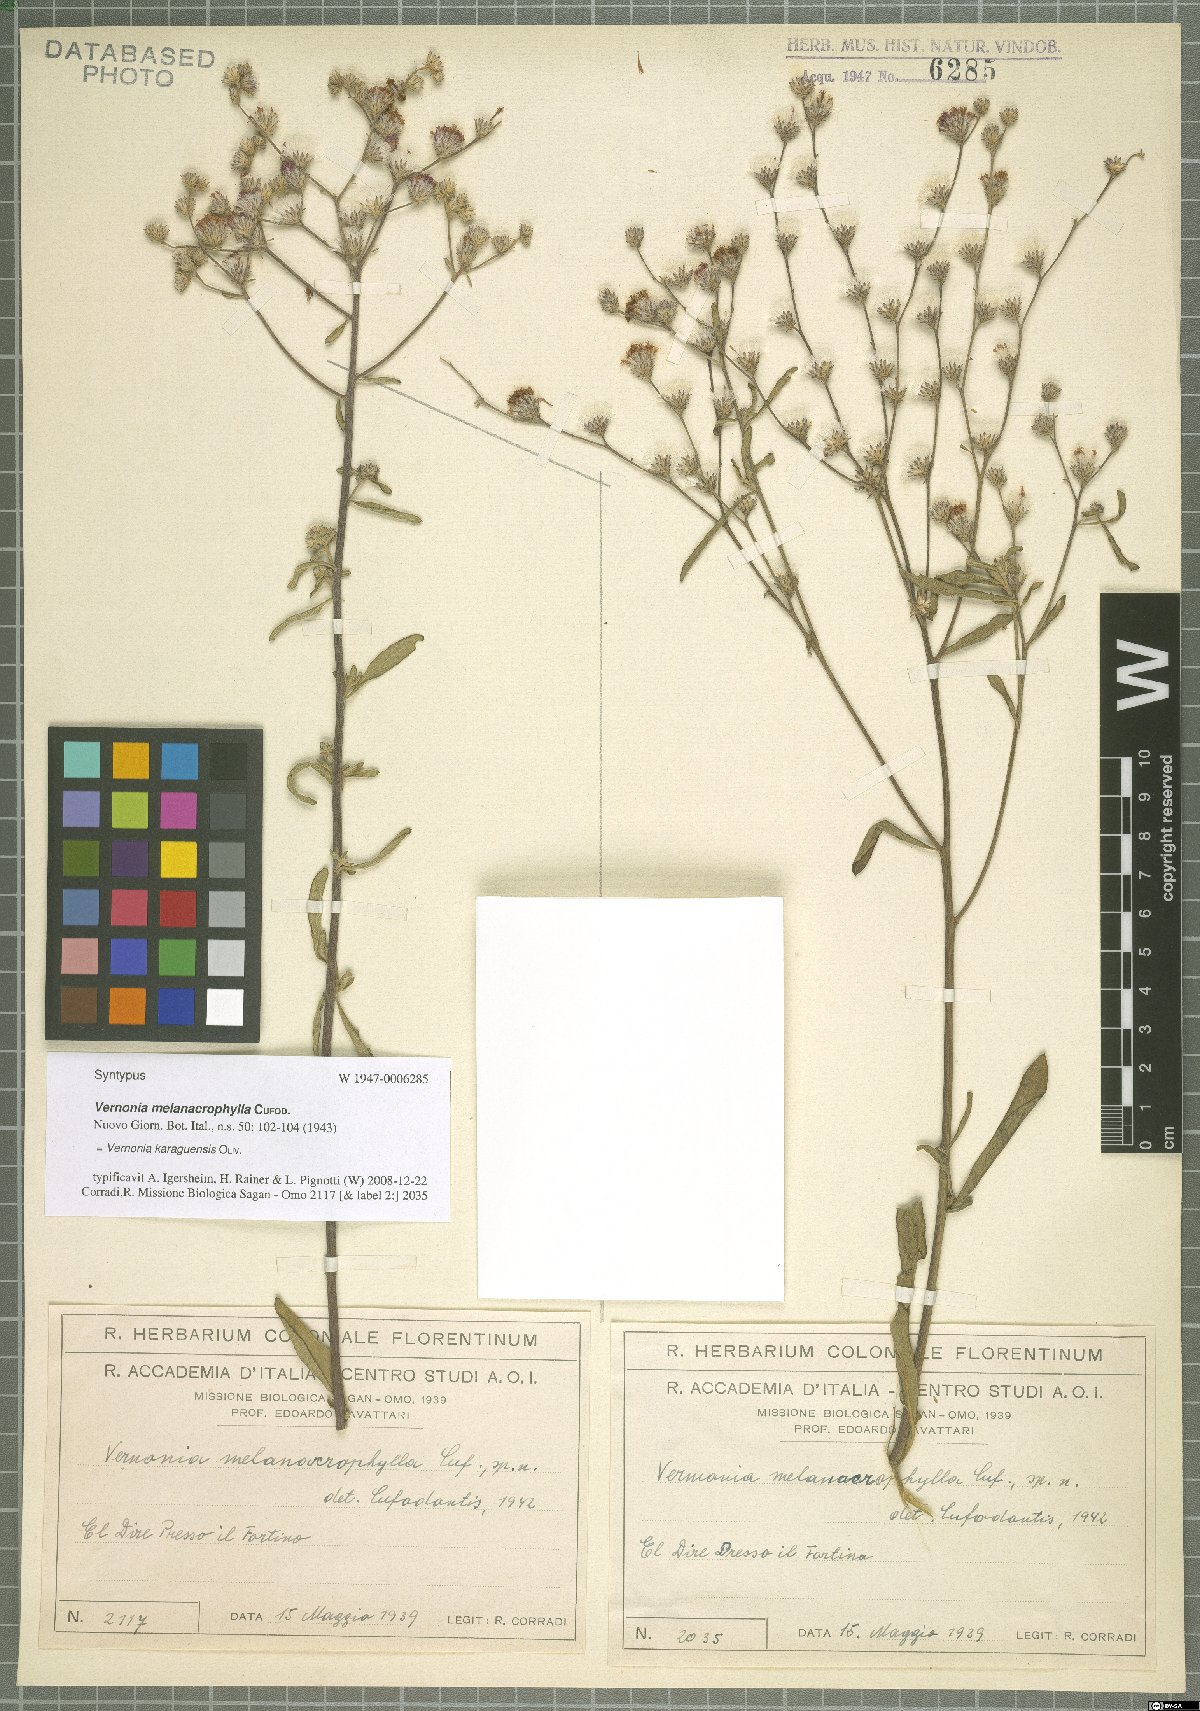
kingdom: Plantae
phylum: Tracheophyta
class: Magnoliopsida
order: Asterales
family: Asteraceae
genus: Orbivestus
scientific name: Orbivestus karaguensis
